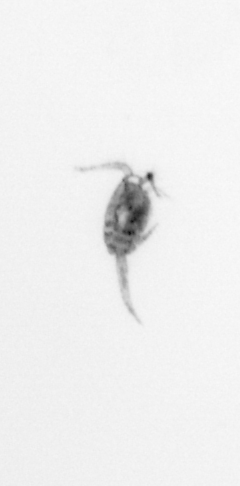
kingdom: Animalia
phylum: Arthropoda
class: Copepoda
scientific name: Copepoda
